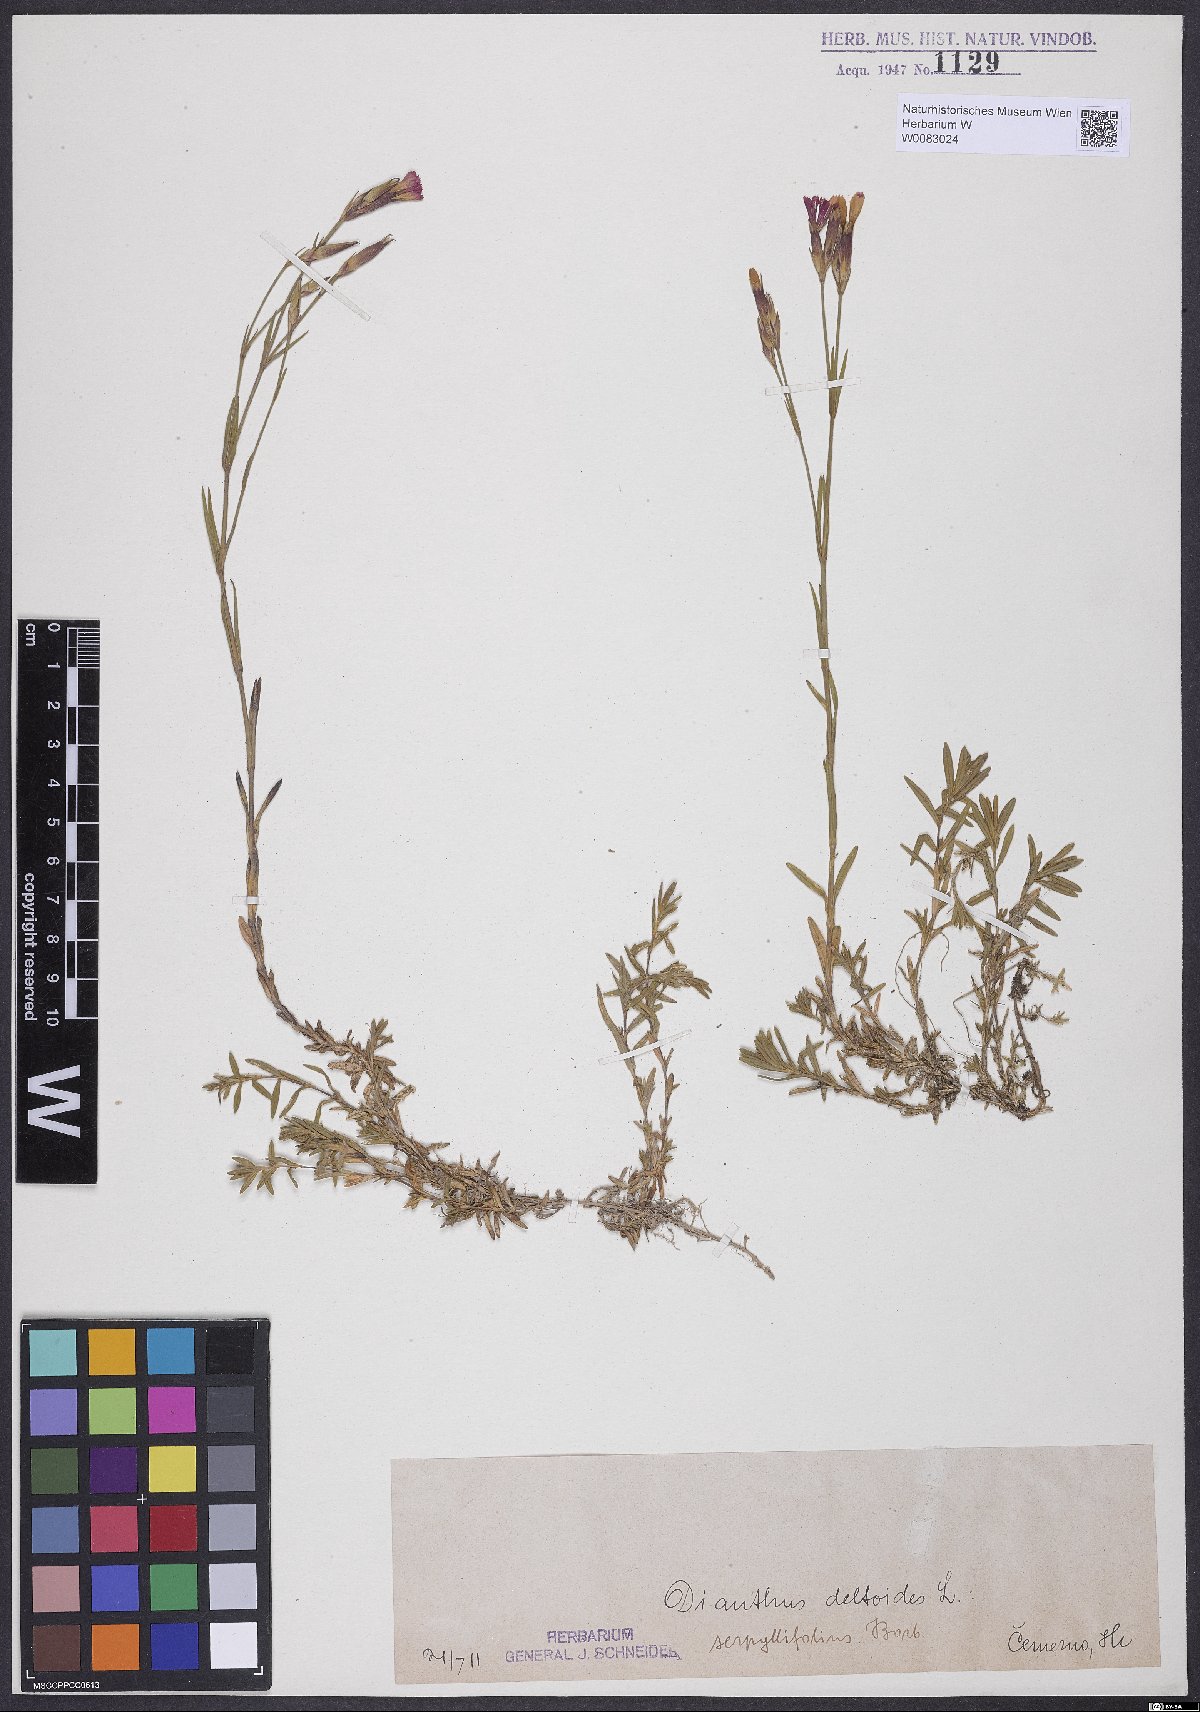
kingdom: Plantae
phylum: Tracheophyta
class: Magnoliopsida
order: Caryophyllales
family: Caryophyllaceae
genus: Dianthus
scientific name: Dianthus deltoides
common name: Maiden pink
